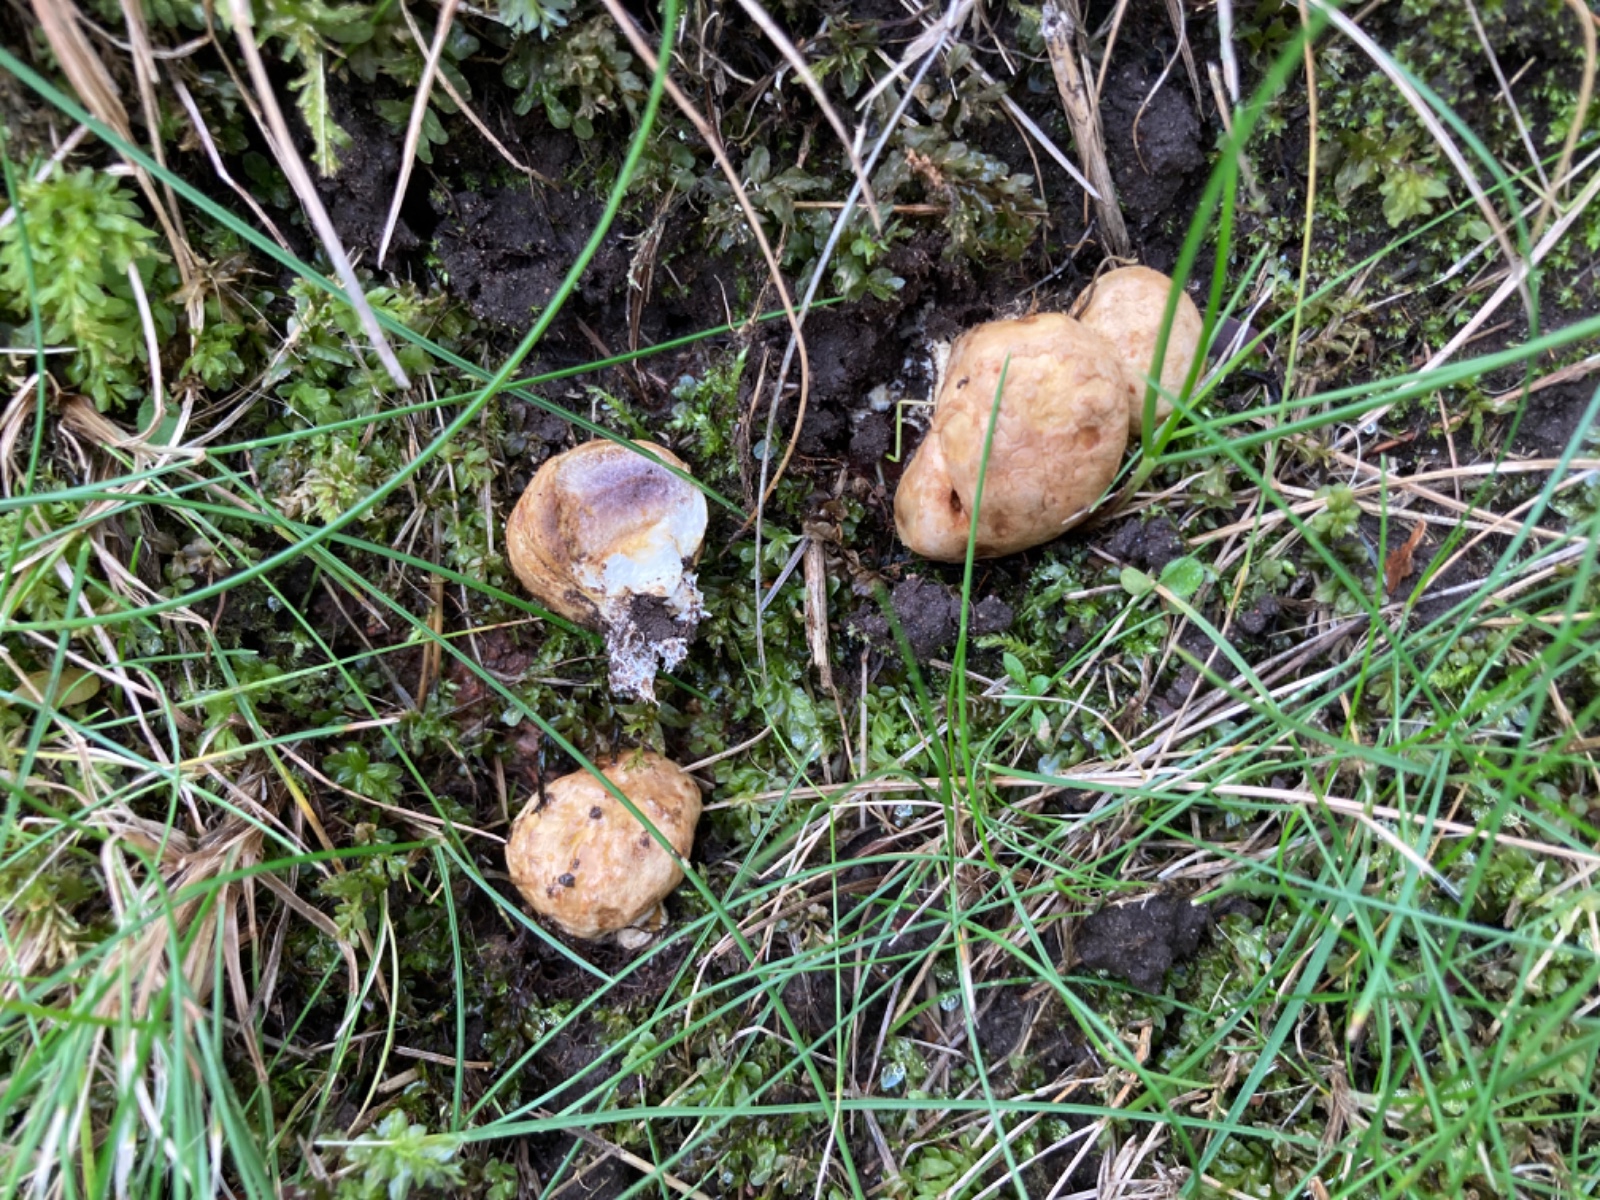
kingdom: Fungi
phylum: Basidiomycota
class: Agaricomycetes
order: Boletales
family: Sclerodermataceae
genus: Scleroderma
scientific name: Scleroderma
